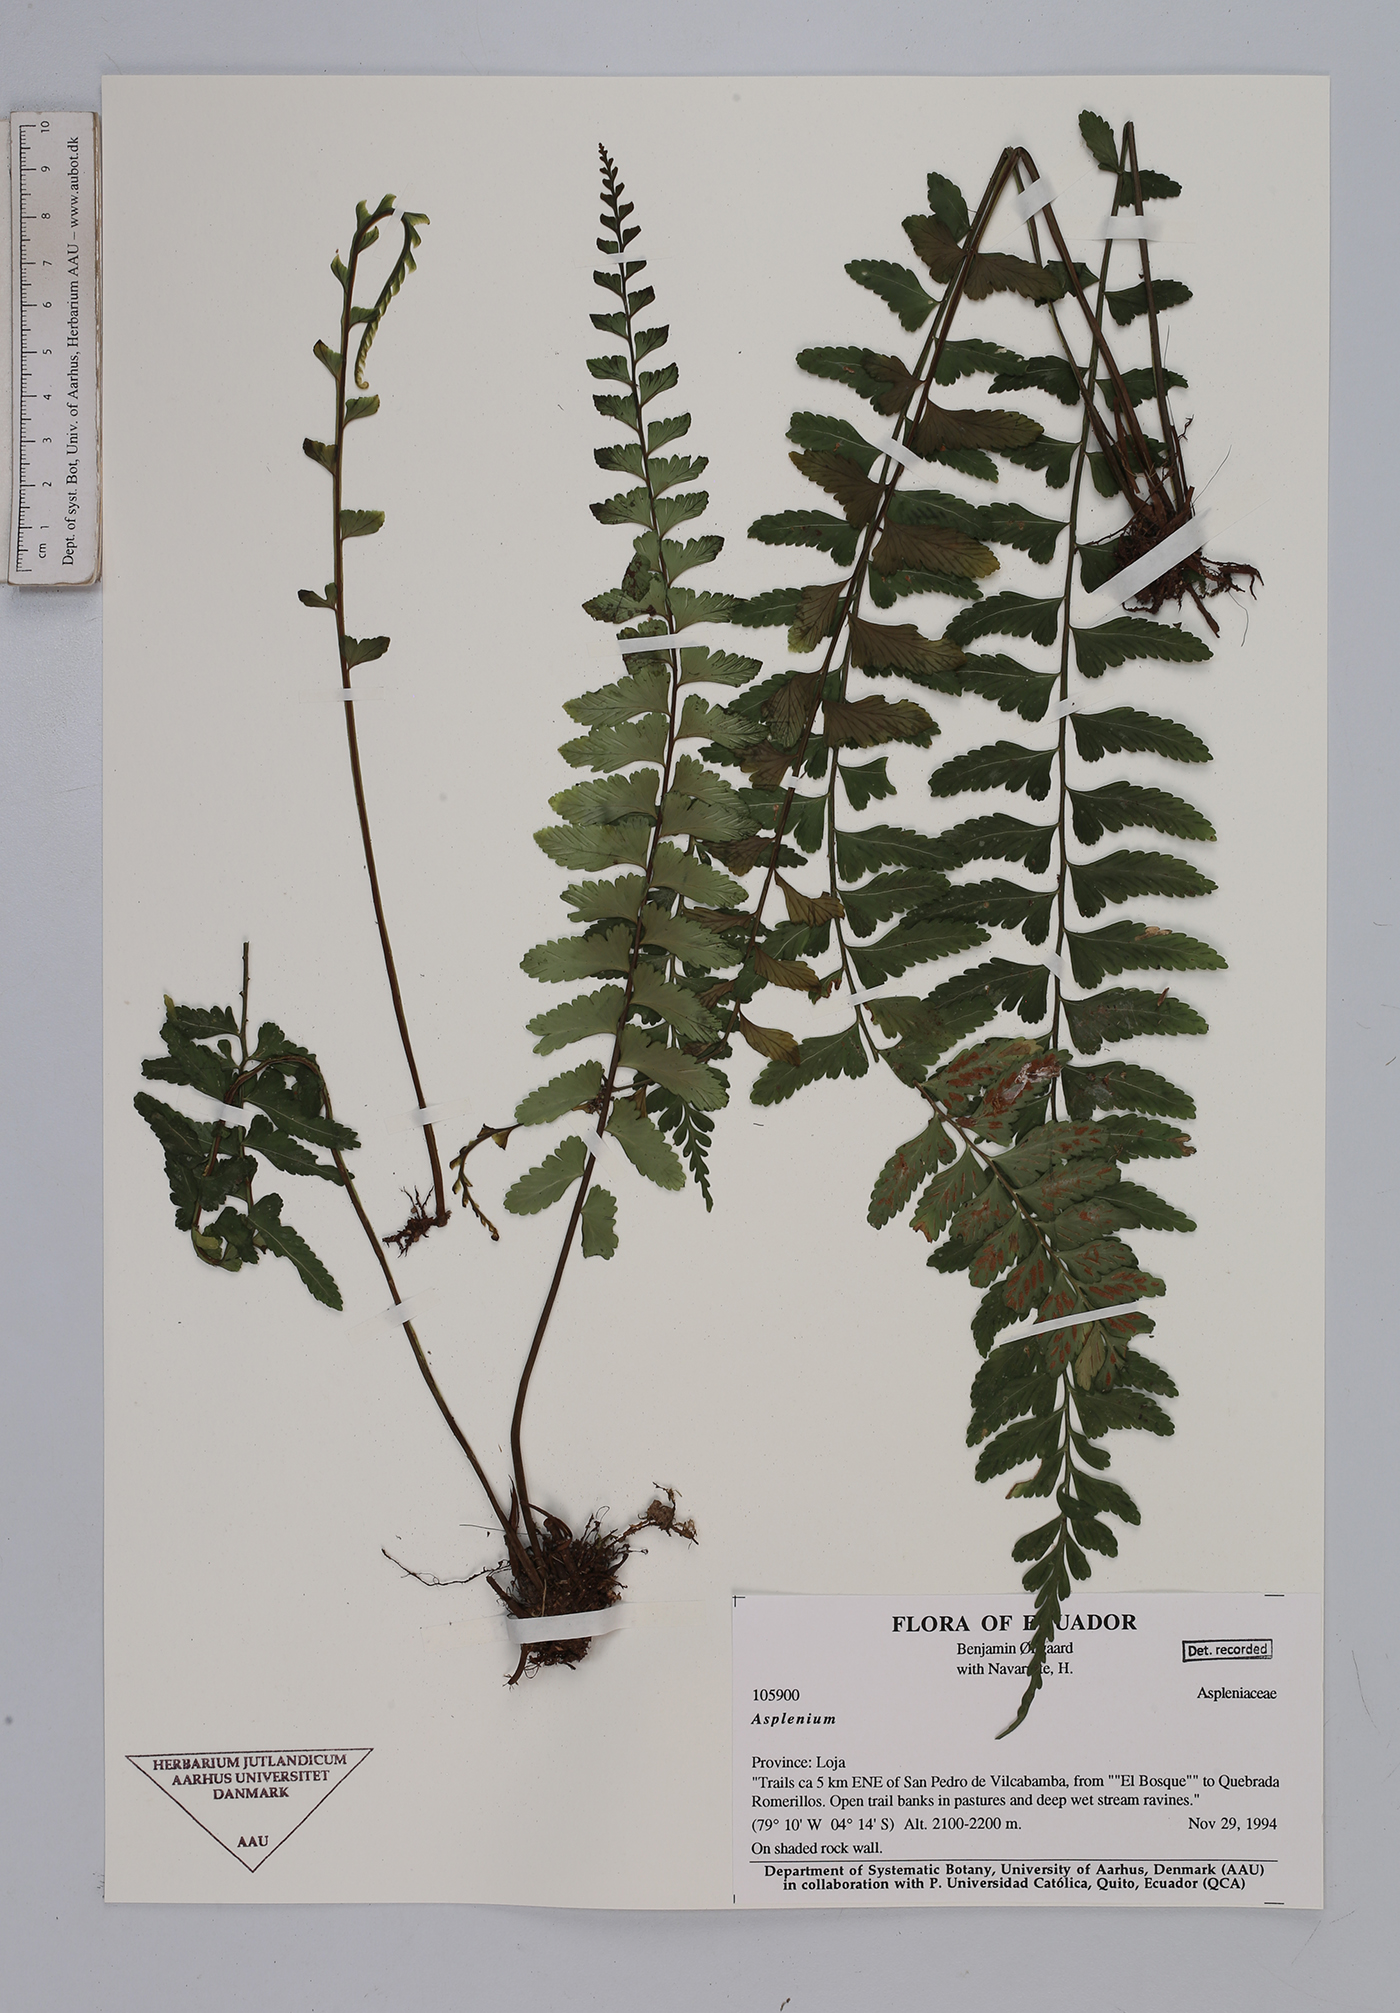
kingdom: Plantae
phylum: Tracheophyta
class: Polypodiopsida
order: Polypodiales
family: Aspleniaceae
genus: Asplenium
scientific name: Asplenium
